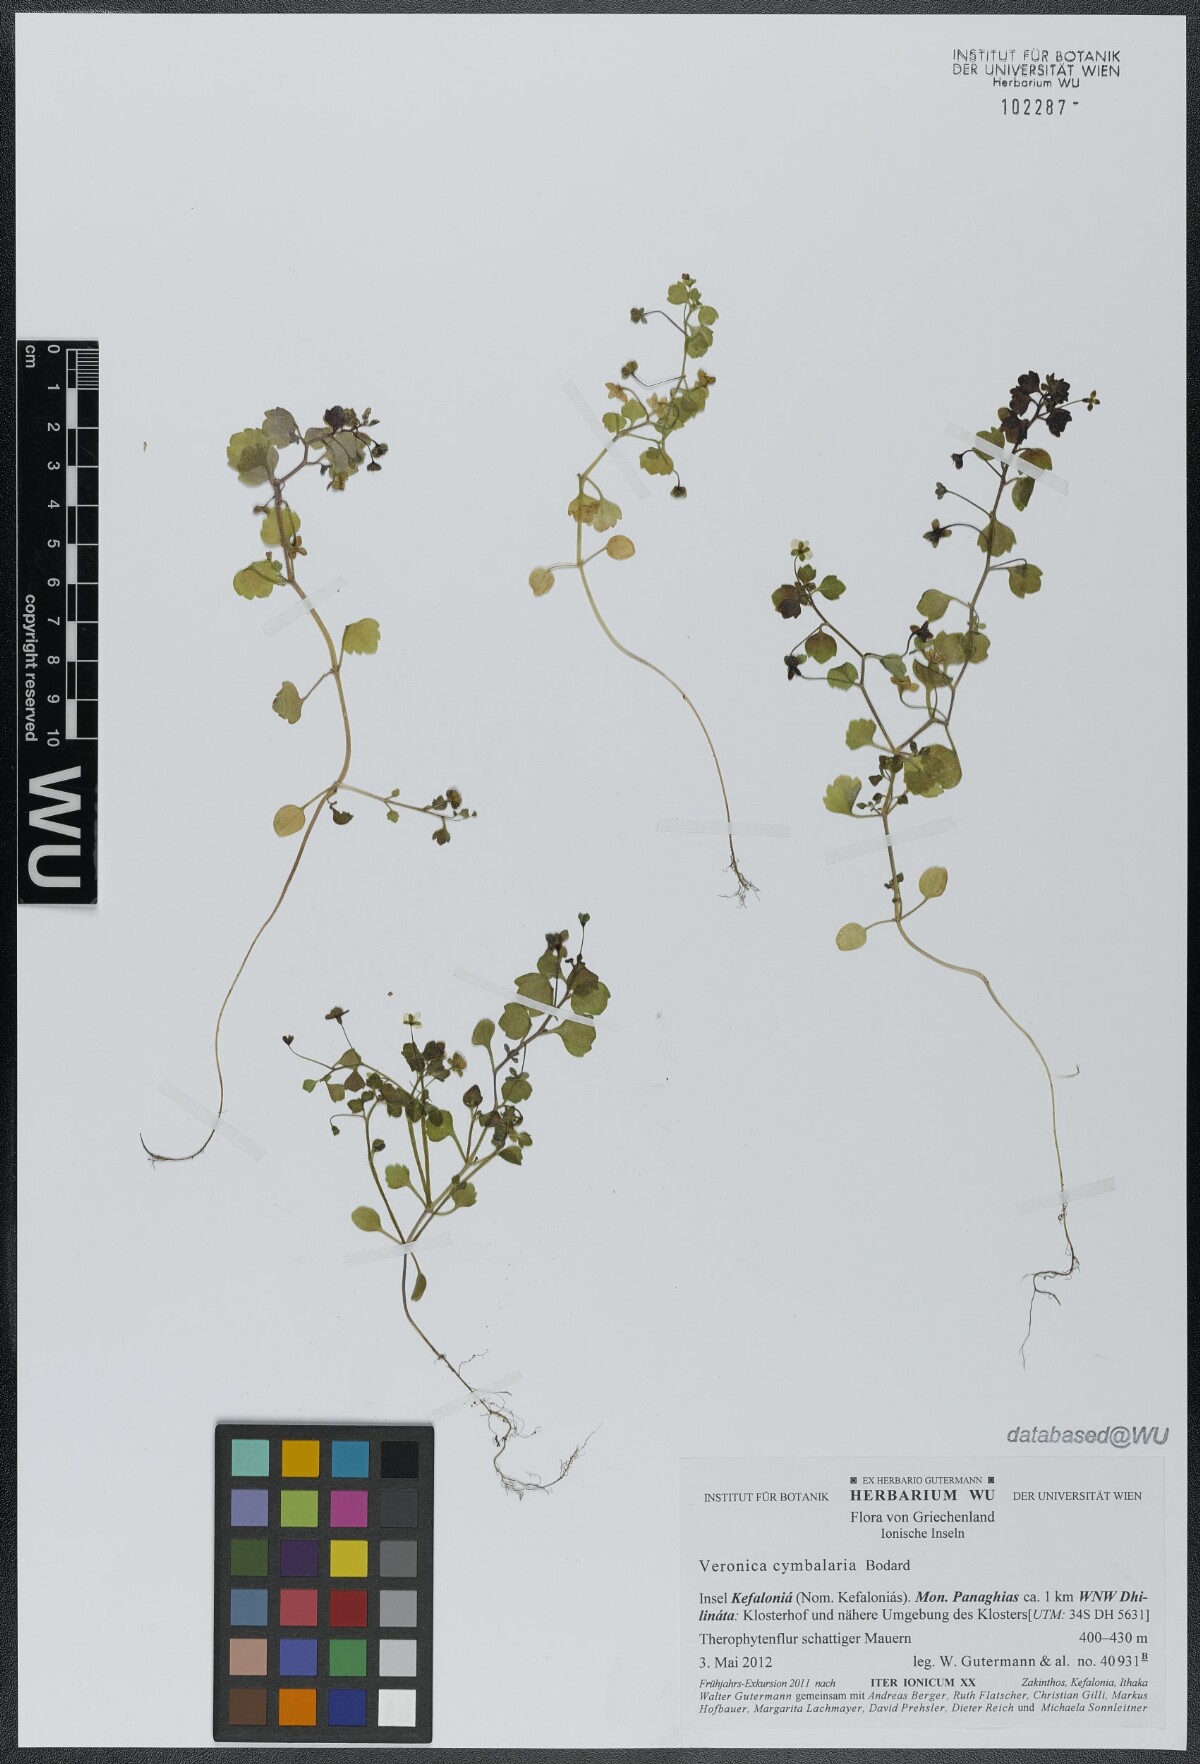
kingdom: Plantae
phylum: Tracheophyta
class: Magnoliopsida
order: Lamiales
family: Plantaginaceae
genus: Veronica
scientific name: Veronica cymbalaria
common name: Pale speedwell
